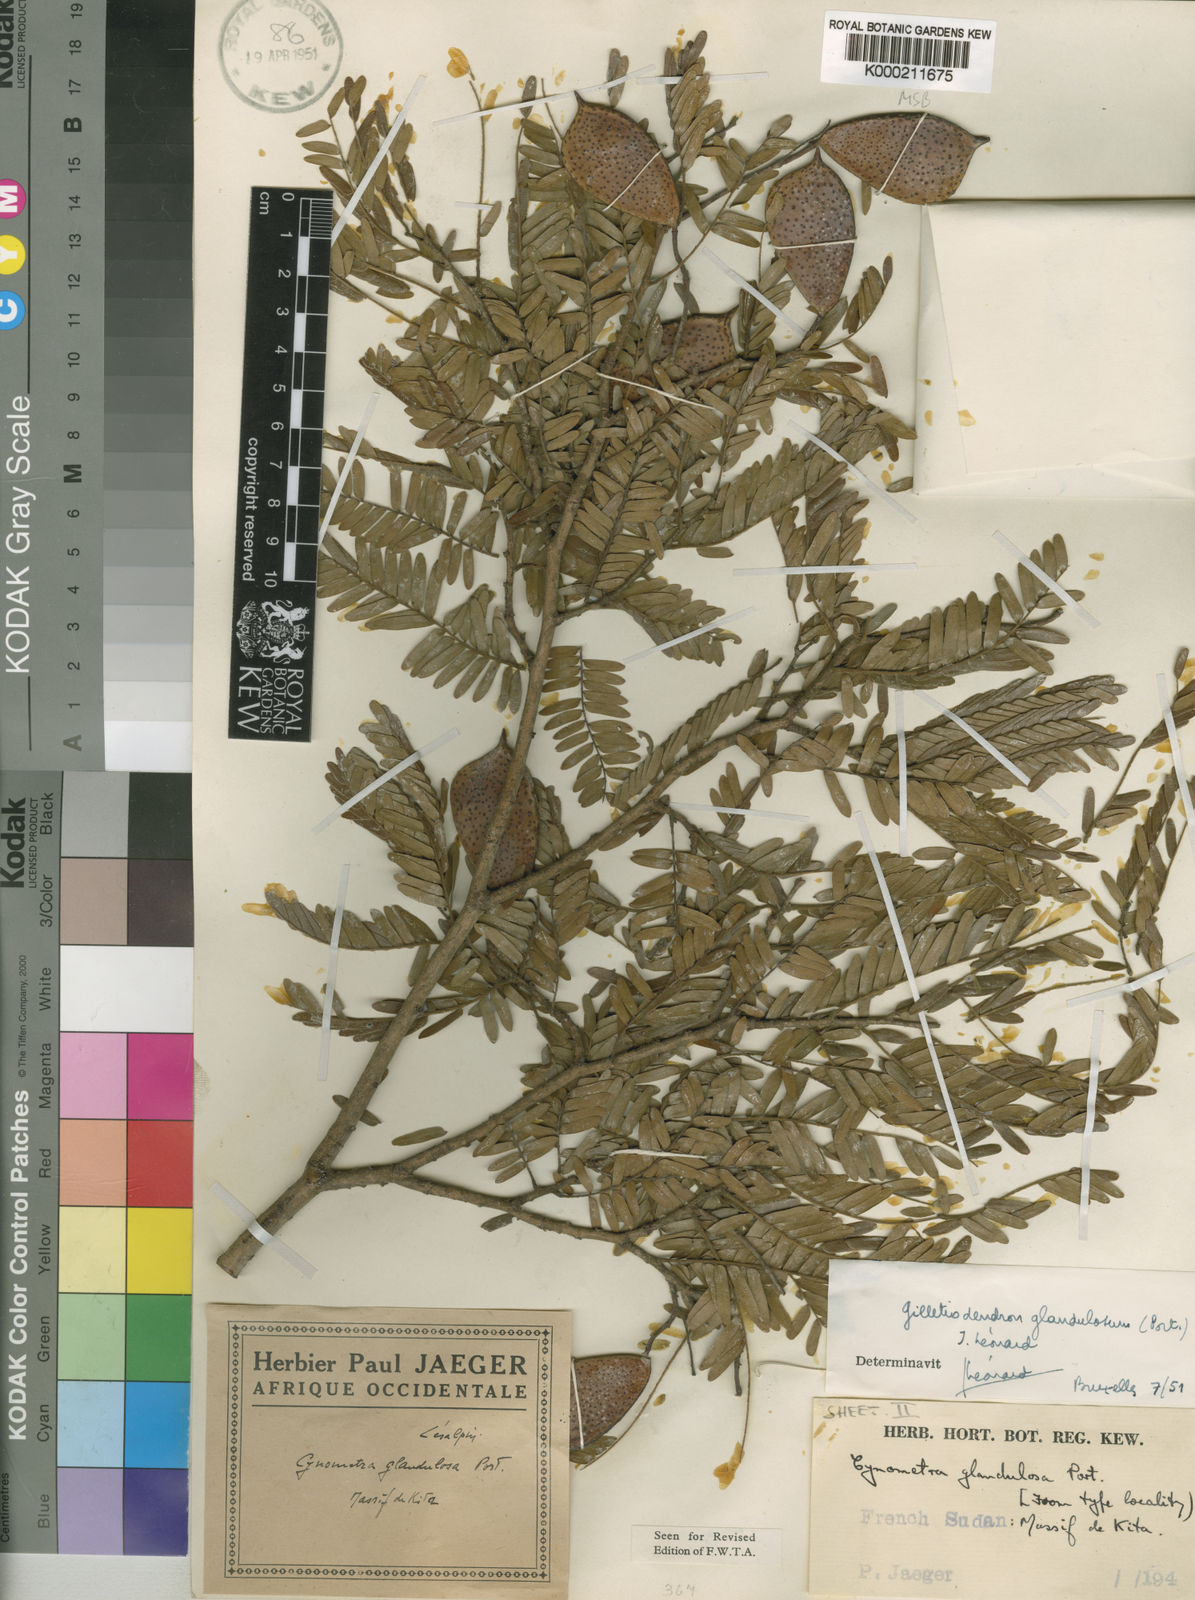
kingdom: Plantae
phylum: Tracheophyta
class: Magnoliopsida
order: Fabales
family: Fabaceae
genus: Gilletiodendron
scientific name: Gilletiodendron
